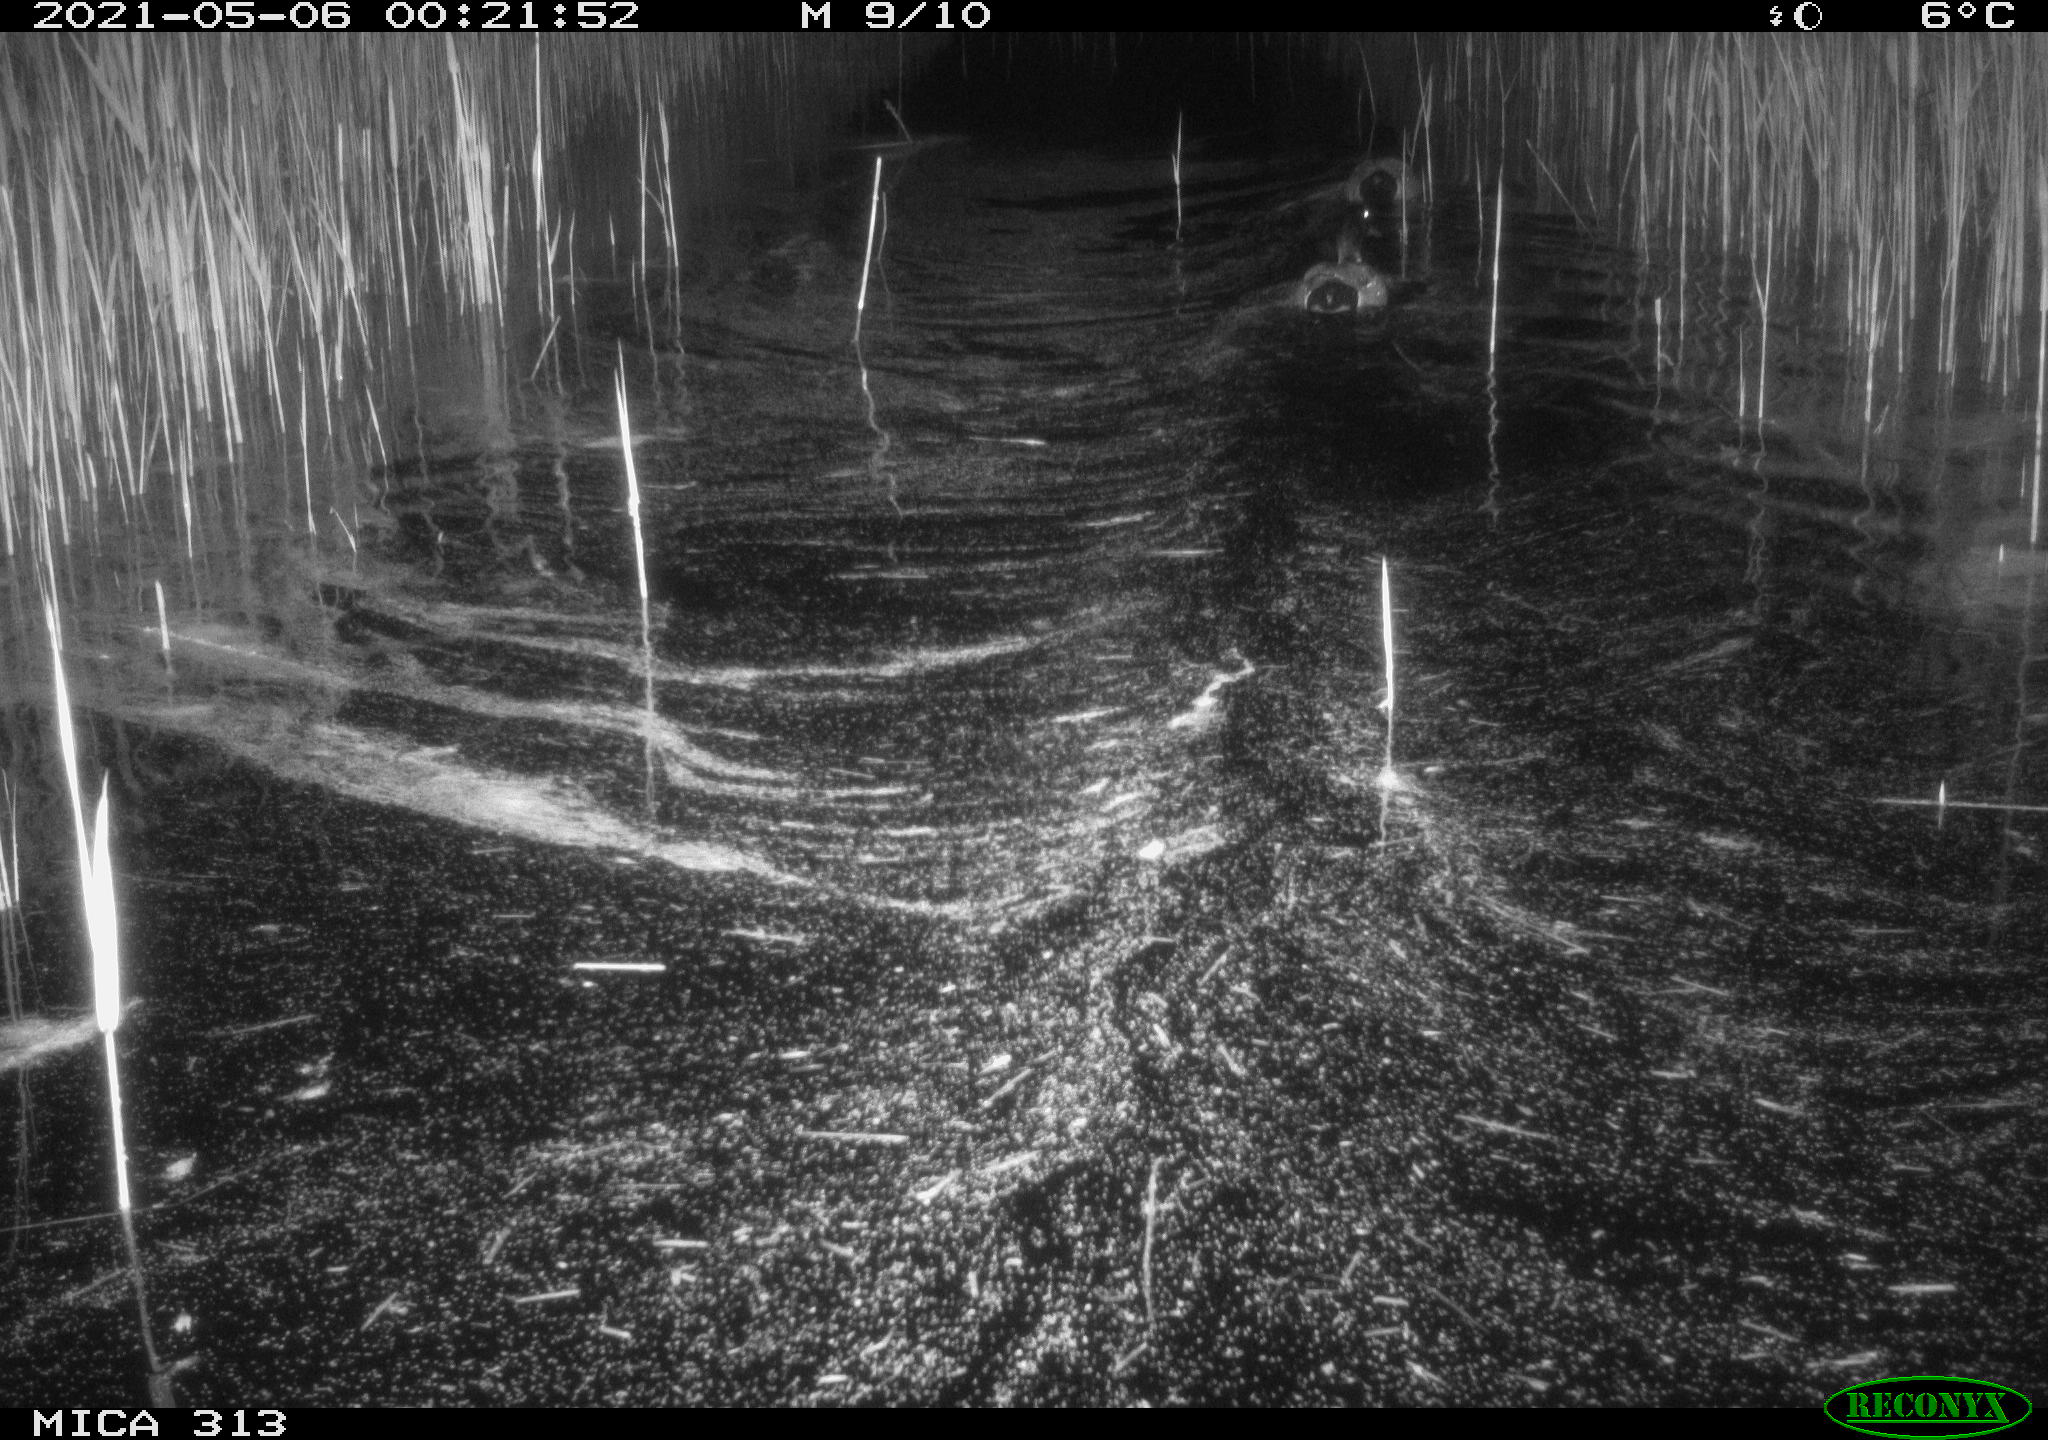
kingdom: Animalia
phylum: Chordata
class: Aves
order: Anseriformes
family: Anatidae
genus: Anas
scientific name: Anas platyrhynchos
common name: Mallard
